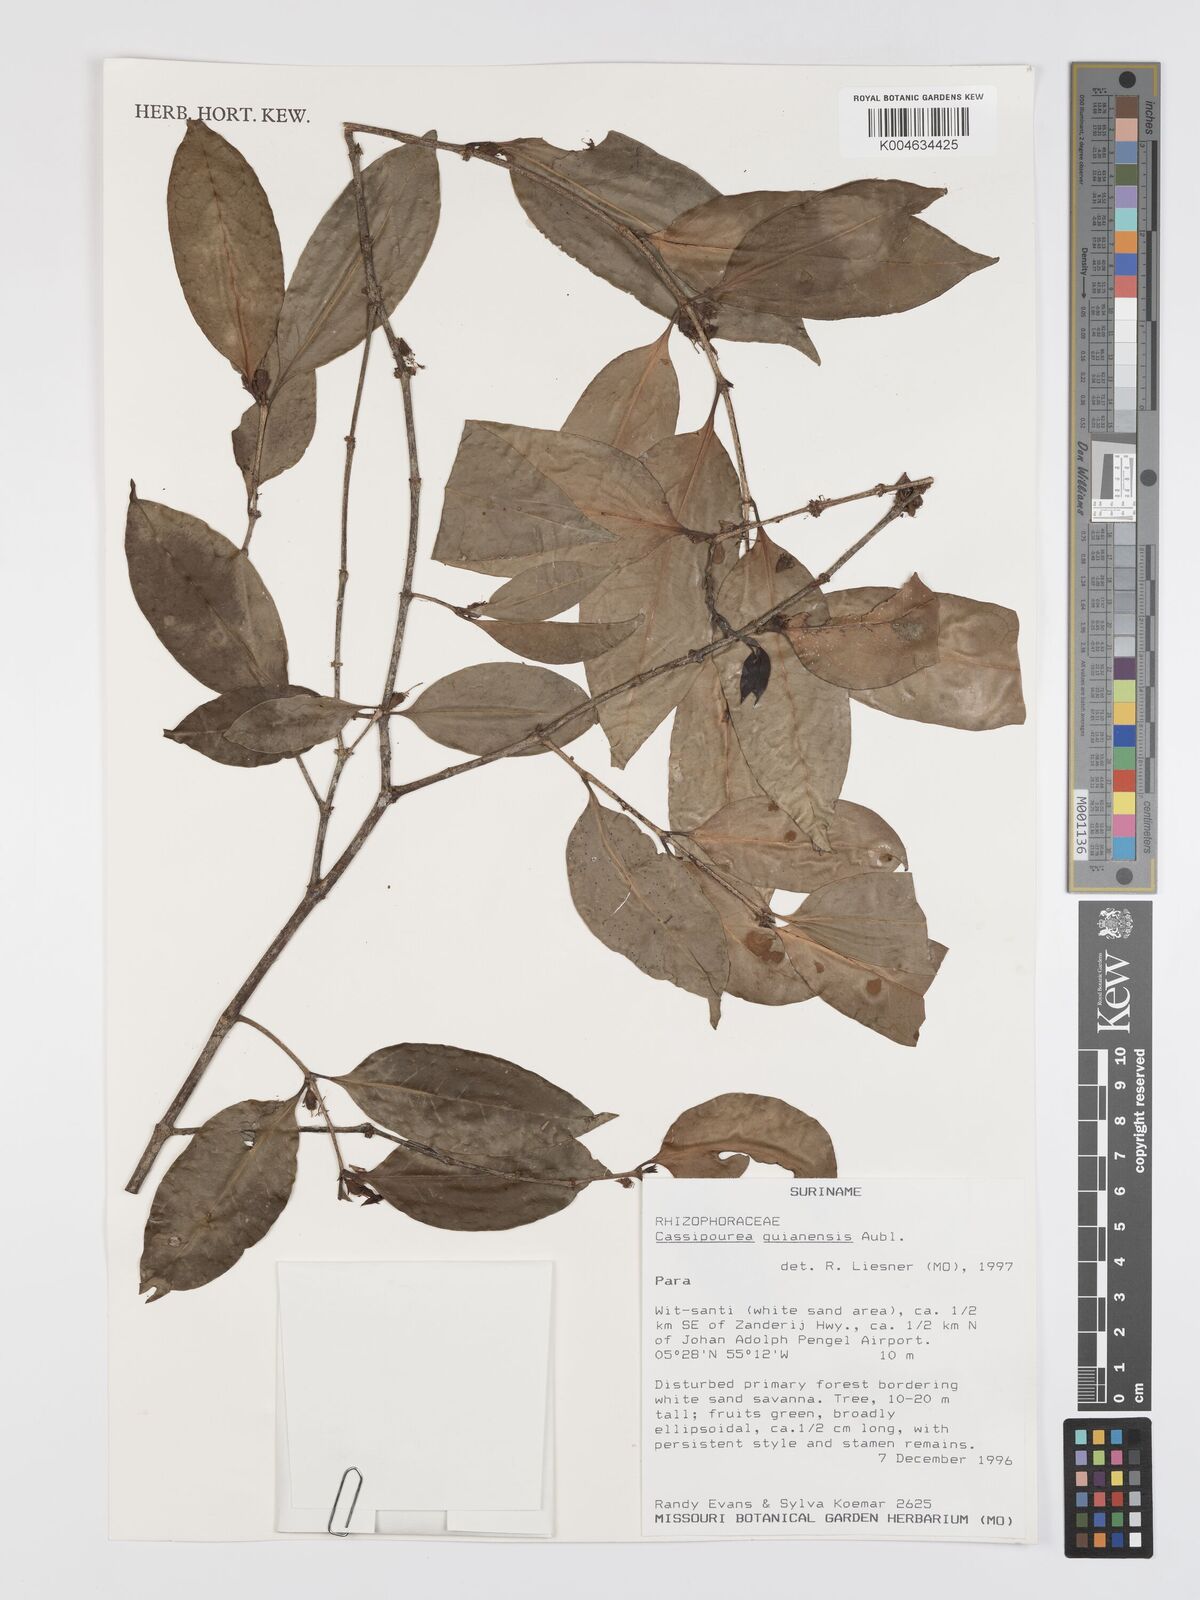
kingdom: Plantae
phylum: Tracheophyta
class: Magnoliopsida
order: Malpighiales
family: Rhizophoraceae
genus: Cassipourea
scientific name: Cassipourea guianensis
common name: Bastard waterwood
